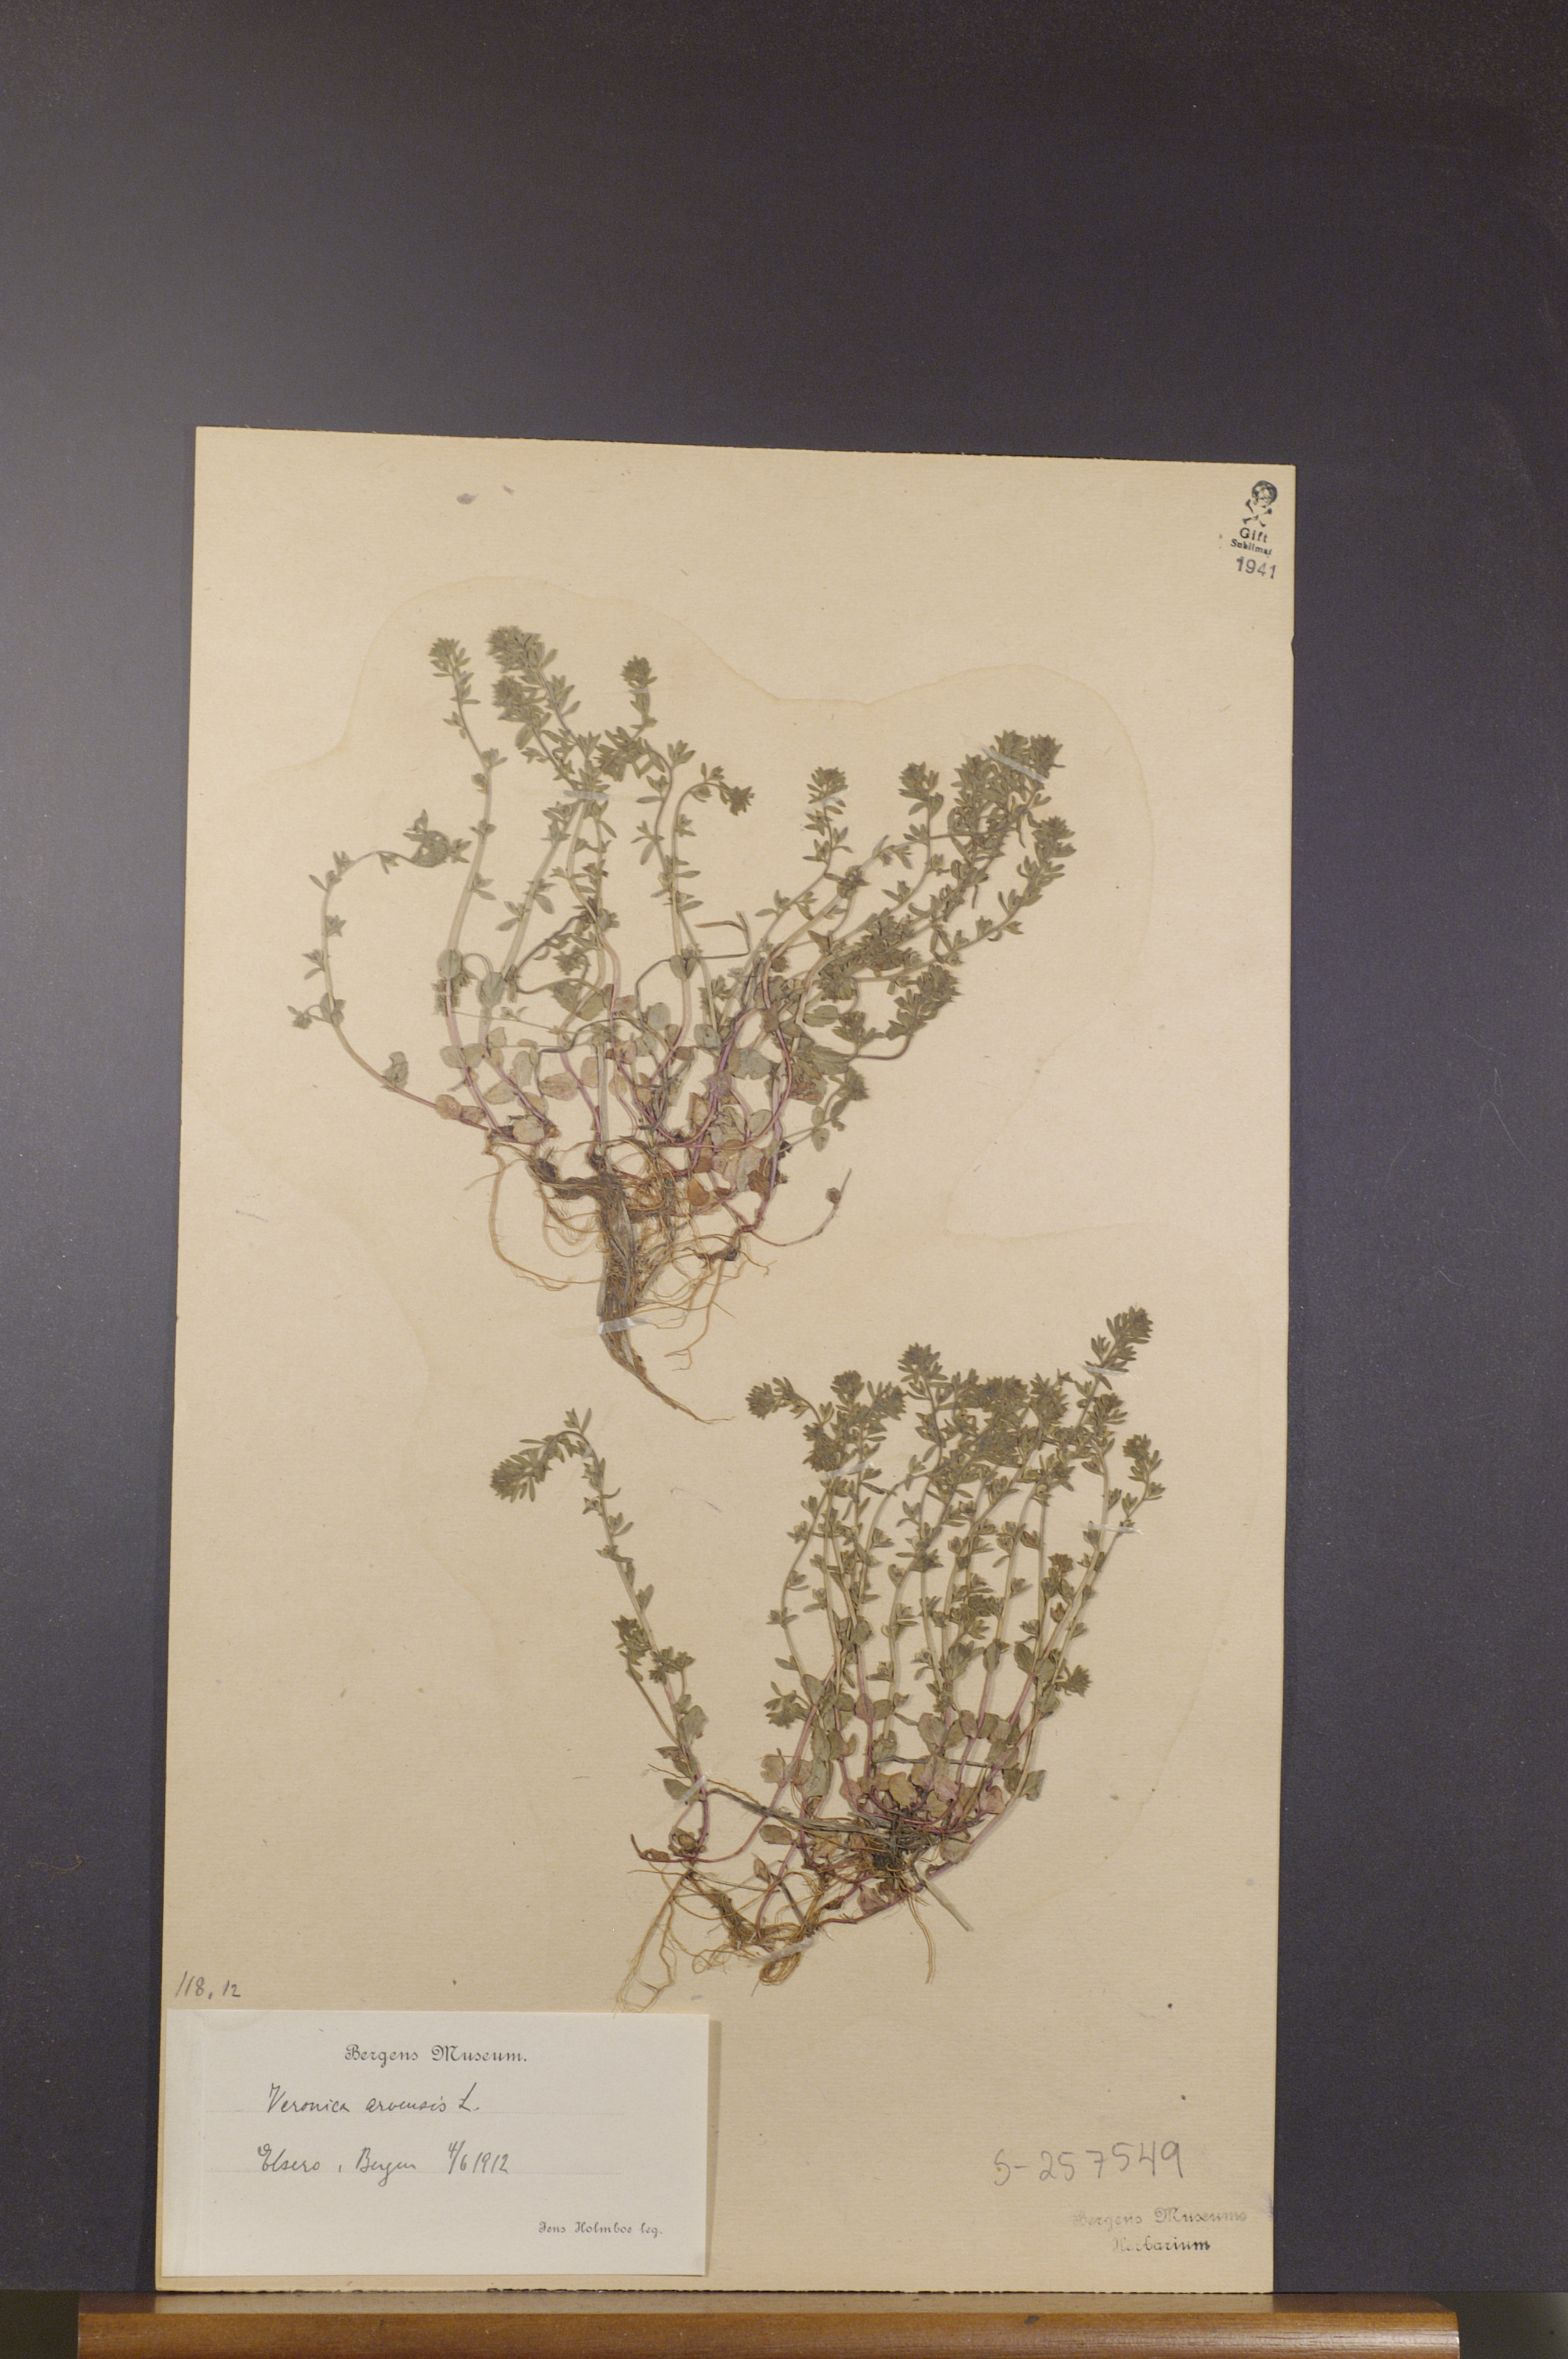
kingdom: Plantae
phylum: Tracheophyta
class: Magnoliopsida
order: Lamiales
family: Plantaginaceae
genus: Veronica
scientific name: Veronica arvensis
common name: Corn speedwell
